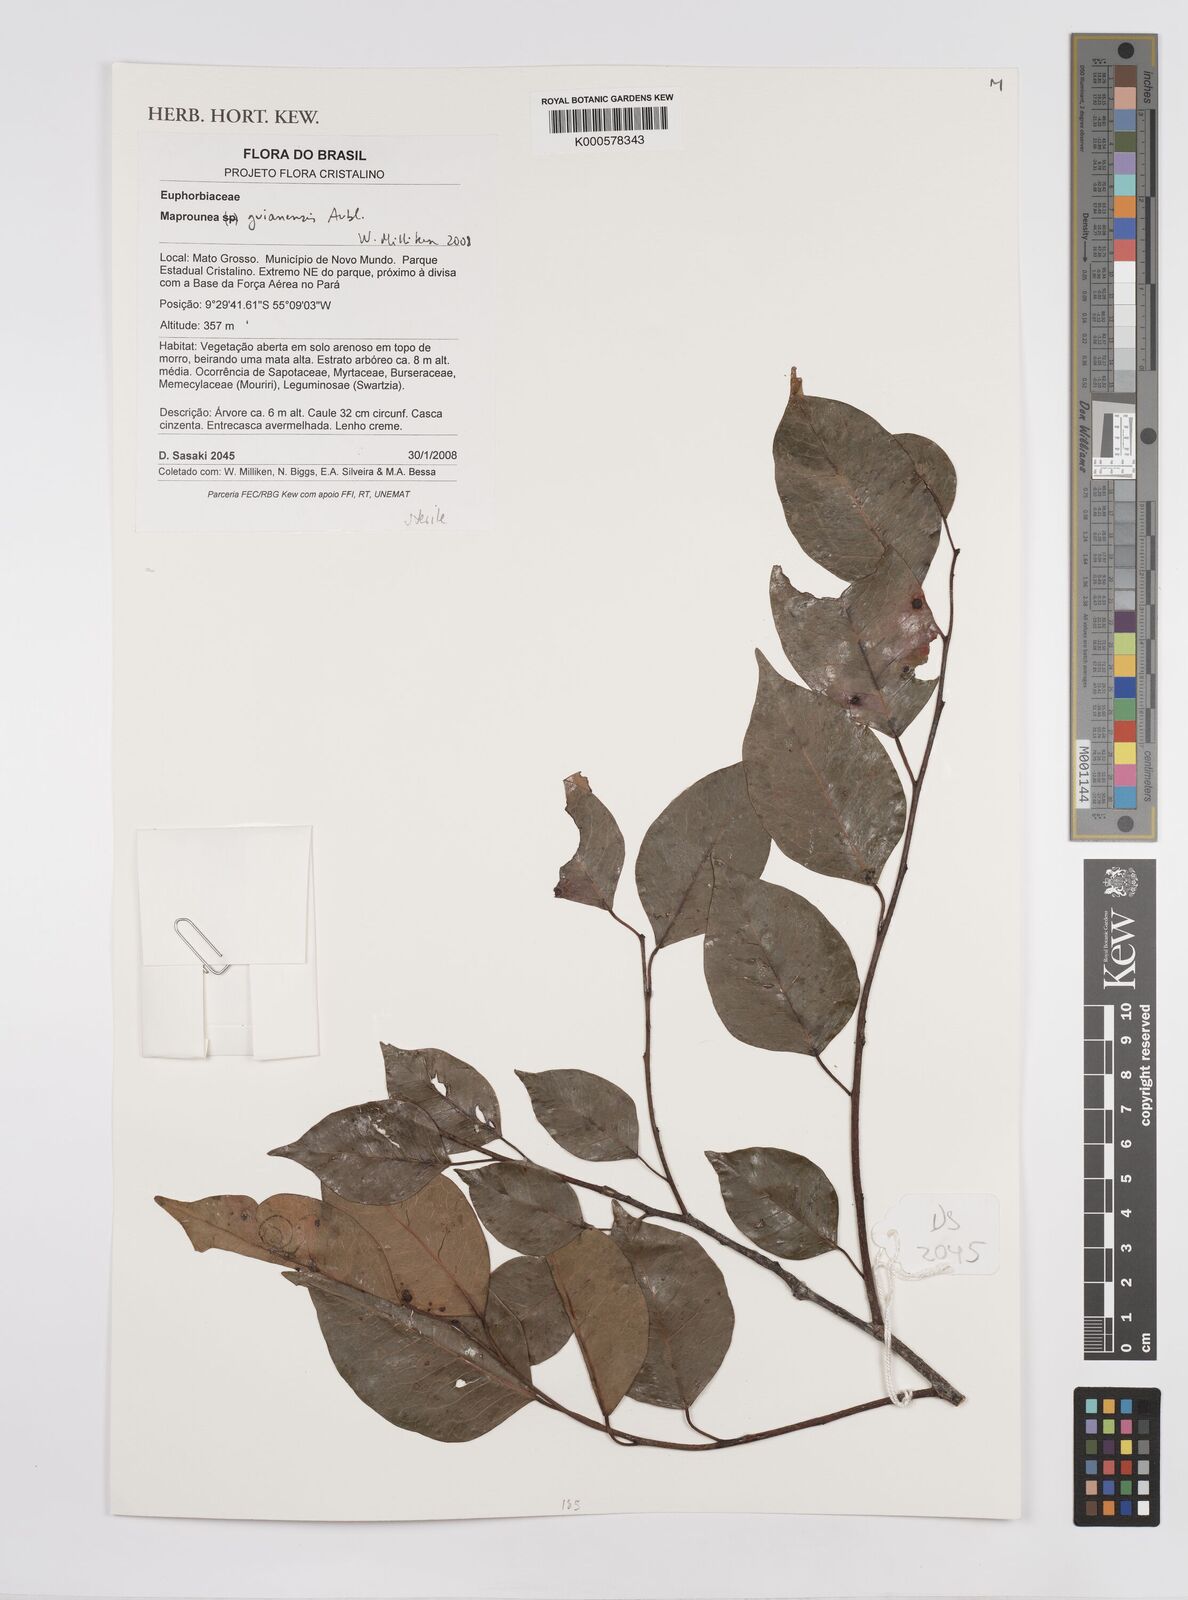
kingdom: Plantae
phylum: Tracheophyta
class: Magnoliopsida
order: Malpighiales
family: Euphorbiaceae
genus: Maprounea
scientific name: Maprounea guianensis
